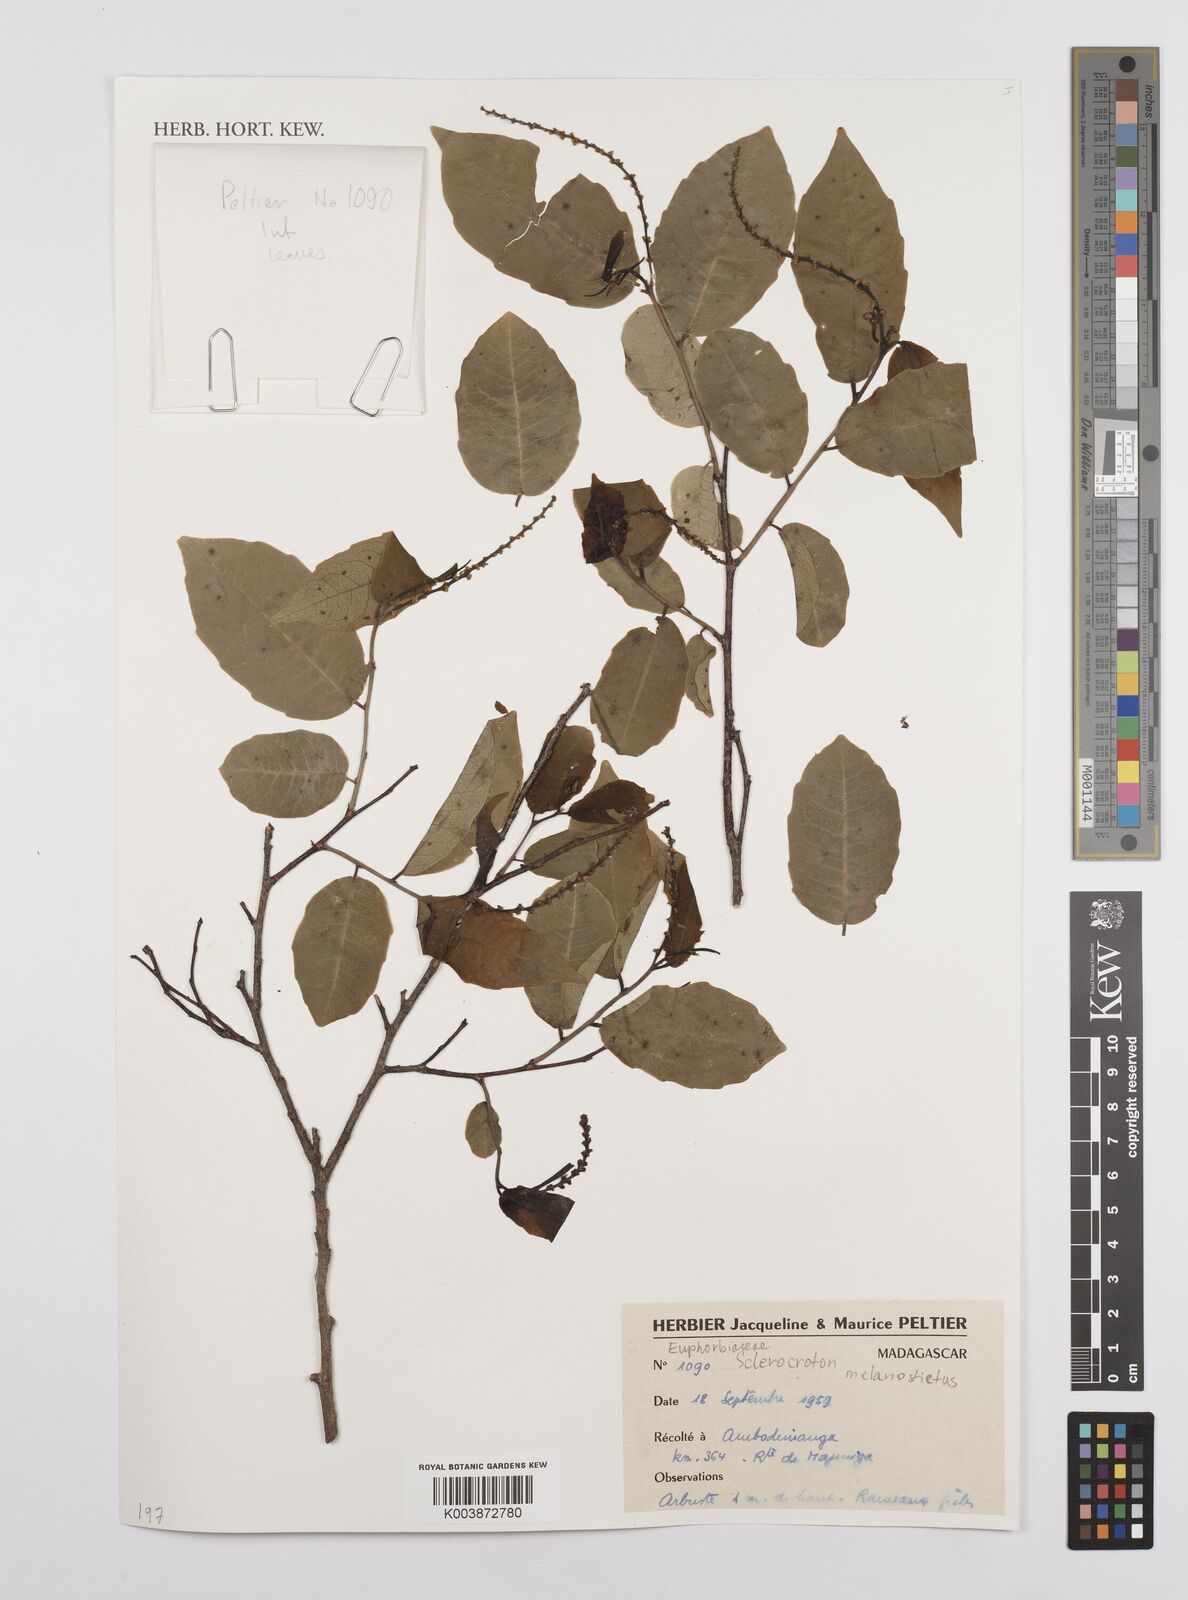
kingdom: Plantae
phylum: Tracheophyta
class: Magnoliopsida
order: Malpighiales
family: Euphorbiaceae
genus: Sclerocroton
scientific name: Sclerocroton melanostictus
